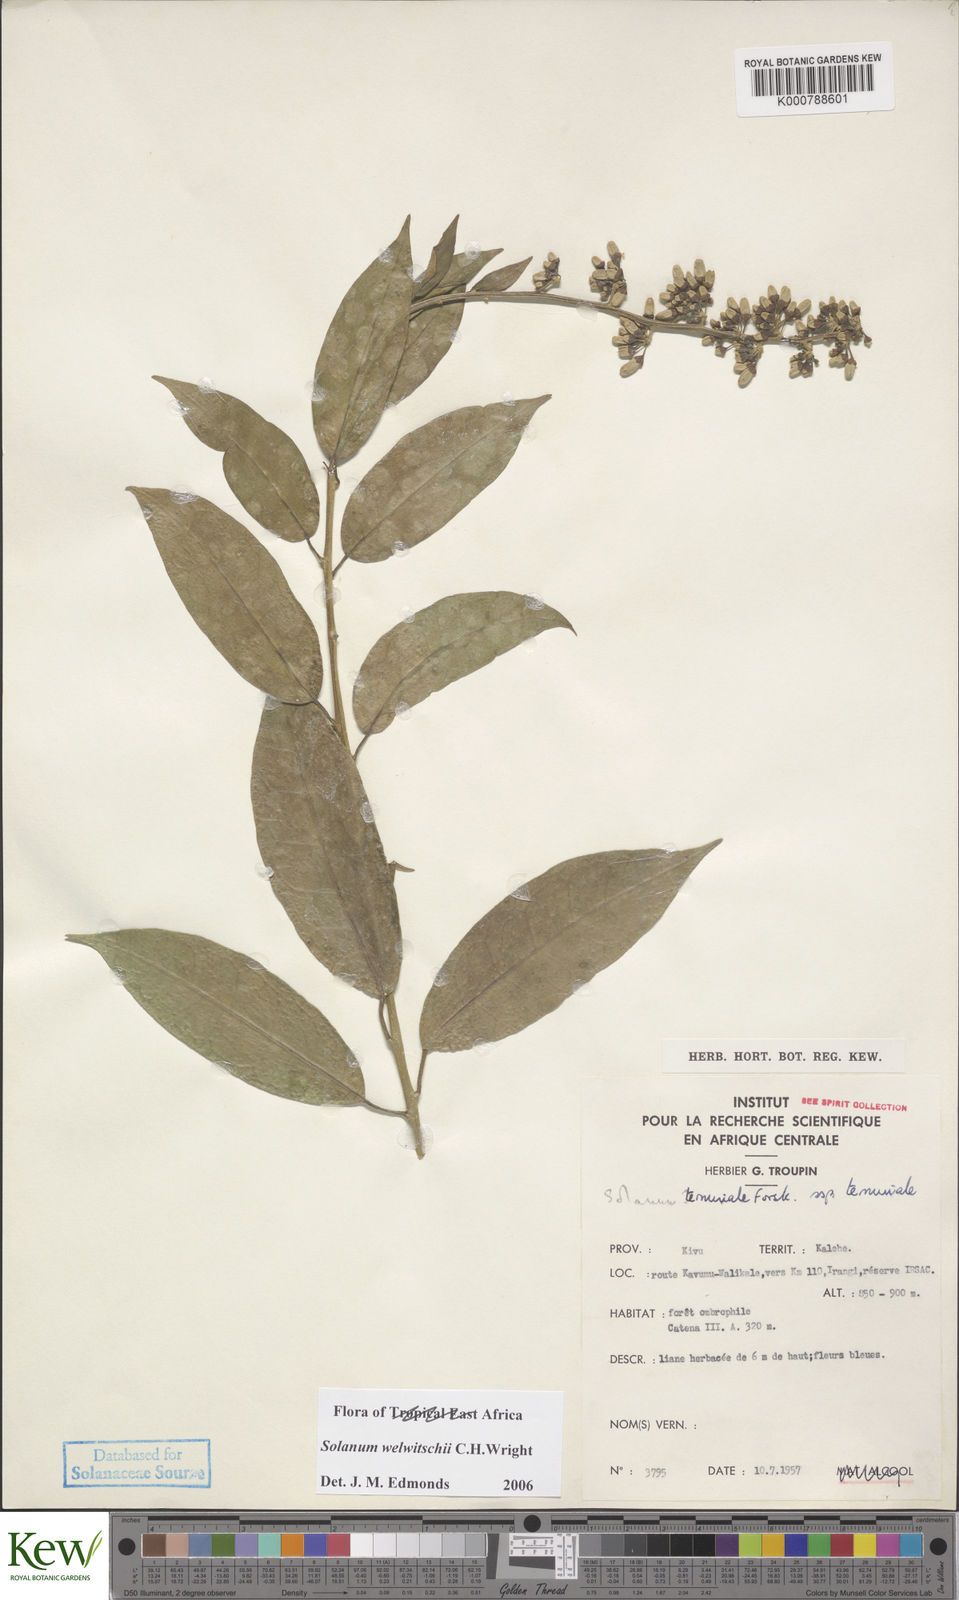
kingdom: Plantae
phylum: Tracheophyta
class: Magnoliopsida
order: Solanales
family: Solanaceae
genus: Solanum
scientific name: Solanum terminale
